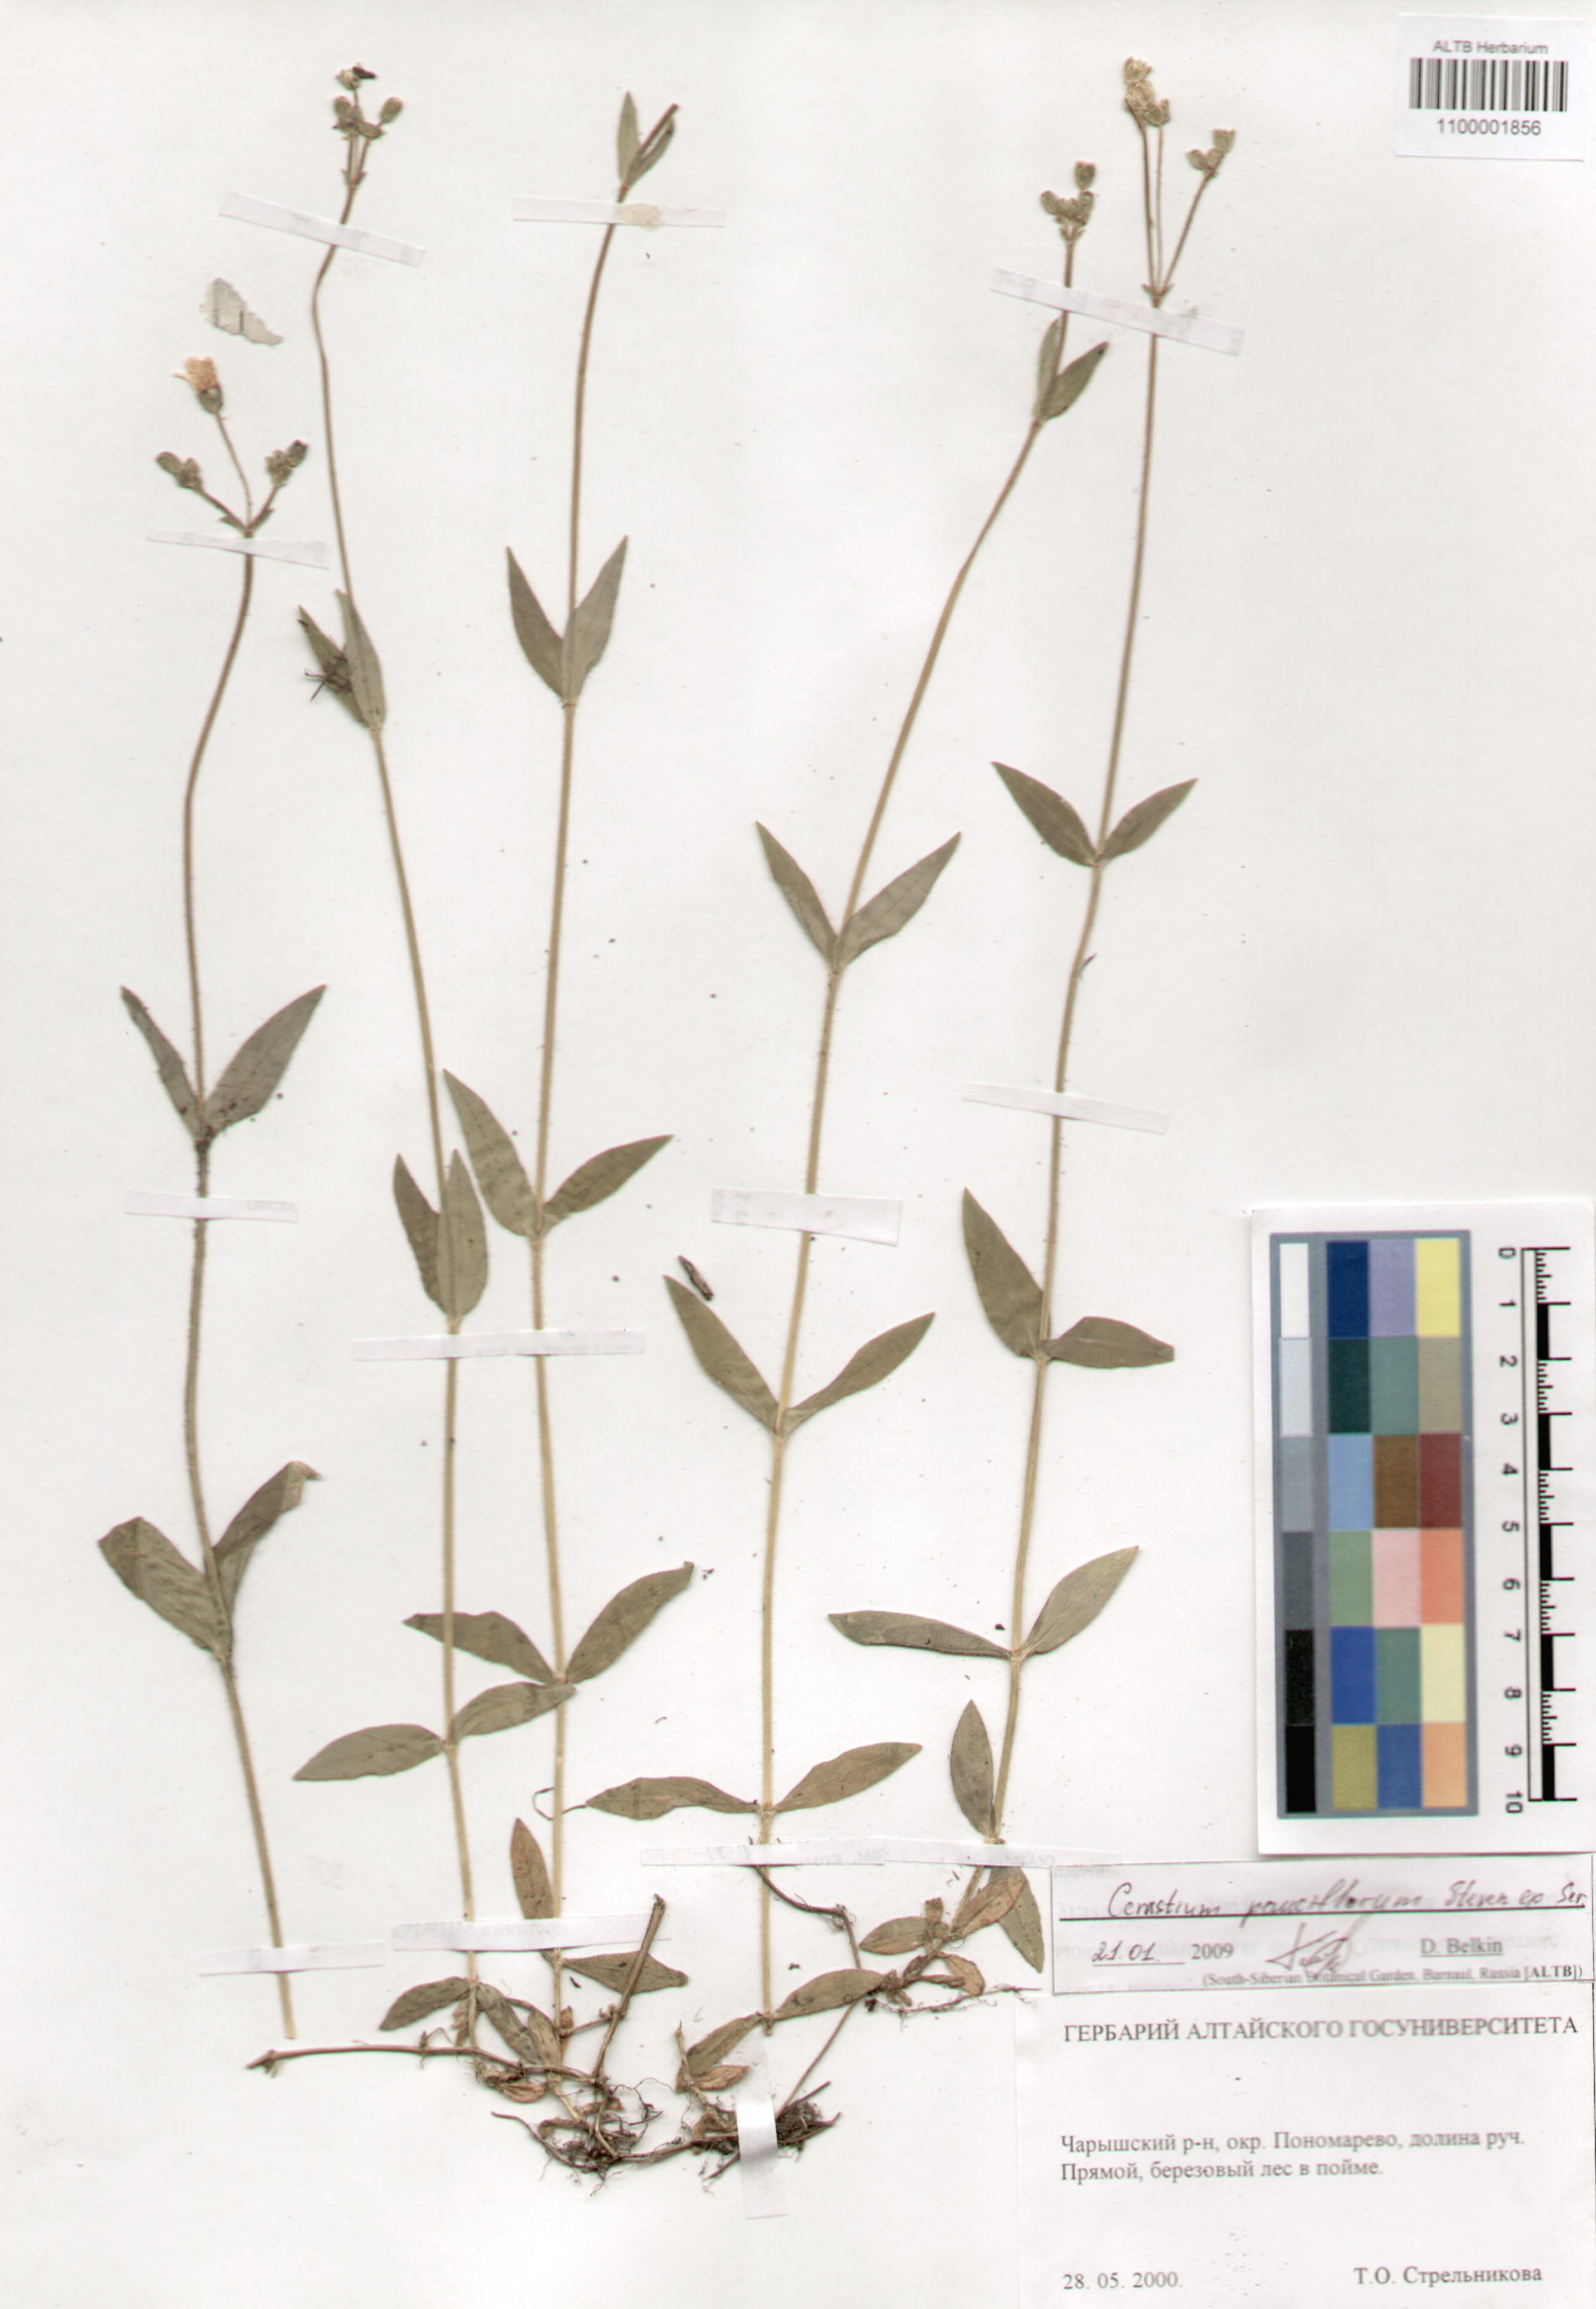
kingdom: Plantae
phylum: Tracheophyta
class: Magnoliopsida
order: Caryophyllales
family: Caryophyllaceae
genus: Cerastium
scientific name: Cerastium pauciflorum
